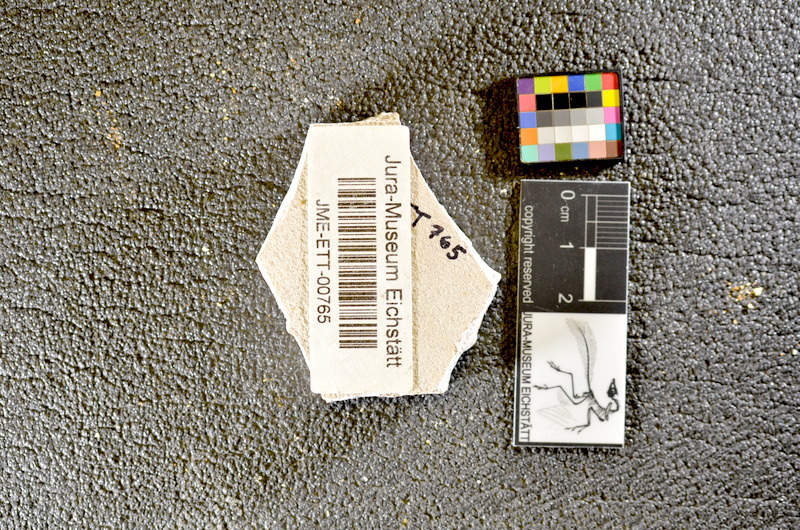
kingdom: Animalia
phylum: Chordata
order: Salmoniformes
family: Orthogonikleithridae
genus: Orthogonikleithrus
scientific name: Orthogonikleithrus hoelli
